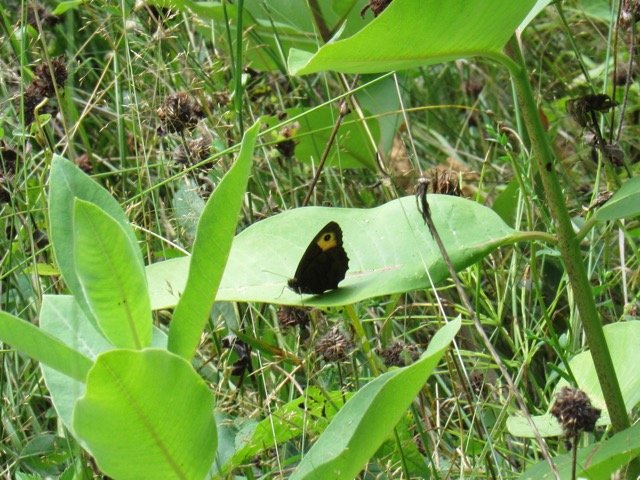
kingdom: Animalia
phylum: Arthropoda
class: Insecta
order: Lepidoptera
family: Nymphalidae
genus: Cercyonis
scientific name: Cercyonis pegala
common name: Common Wood-Nymph
